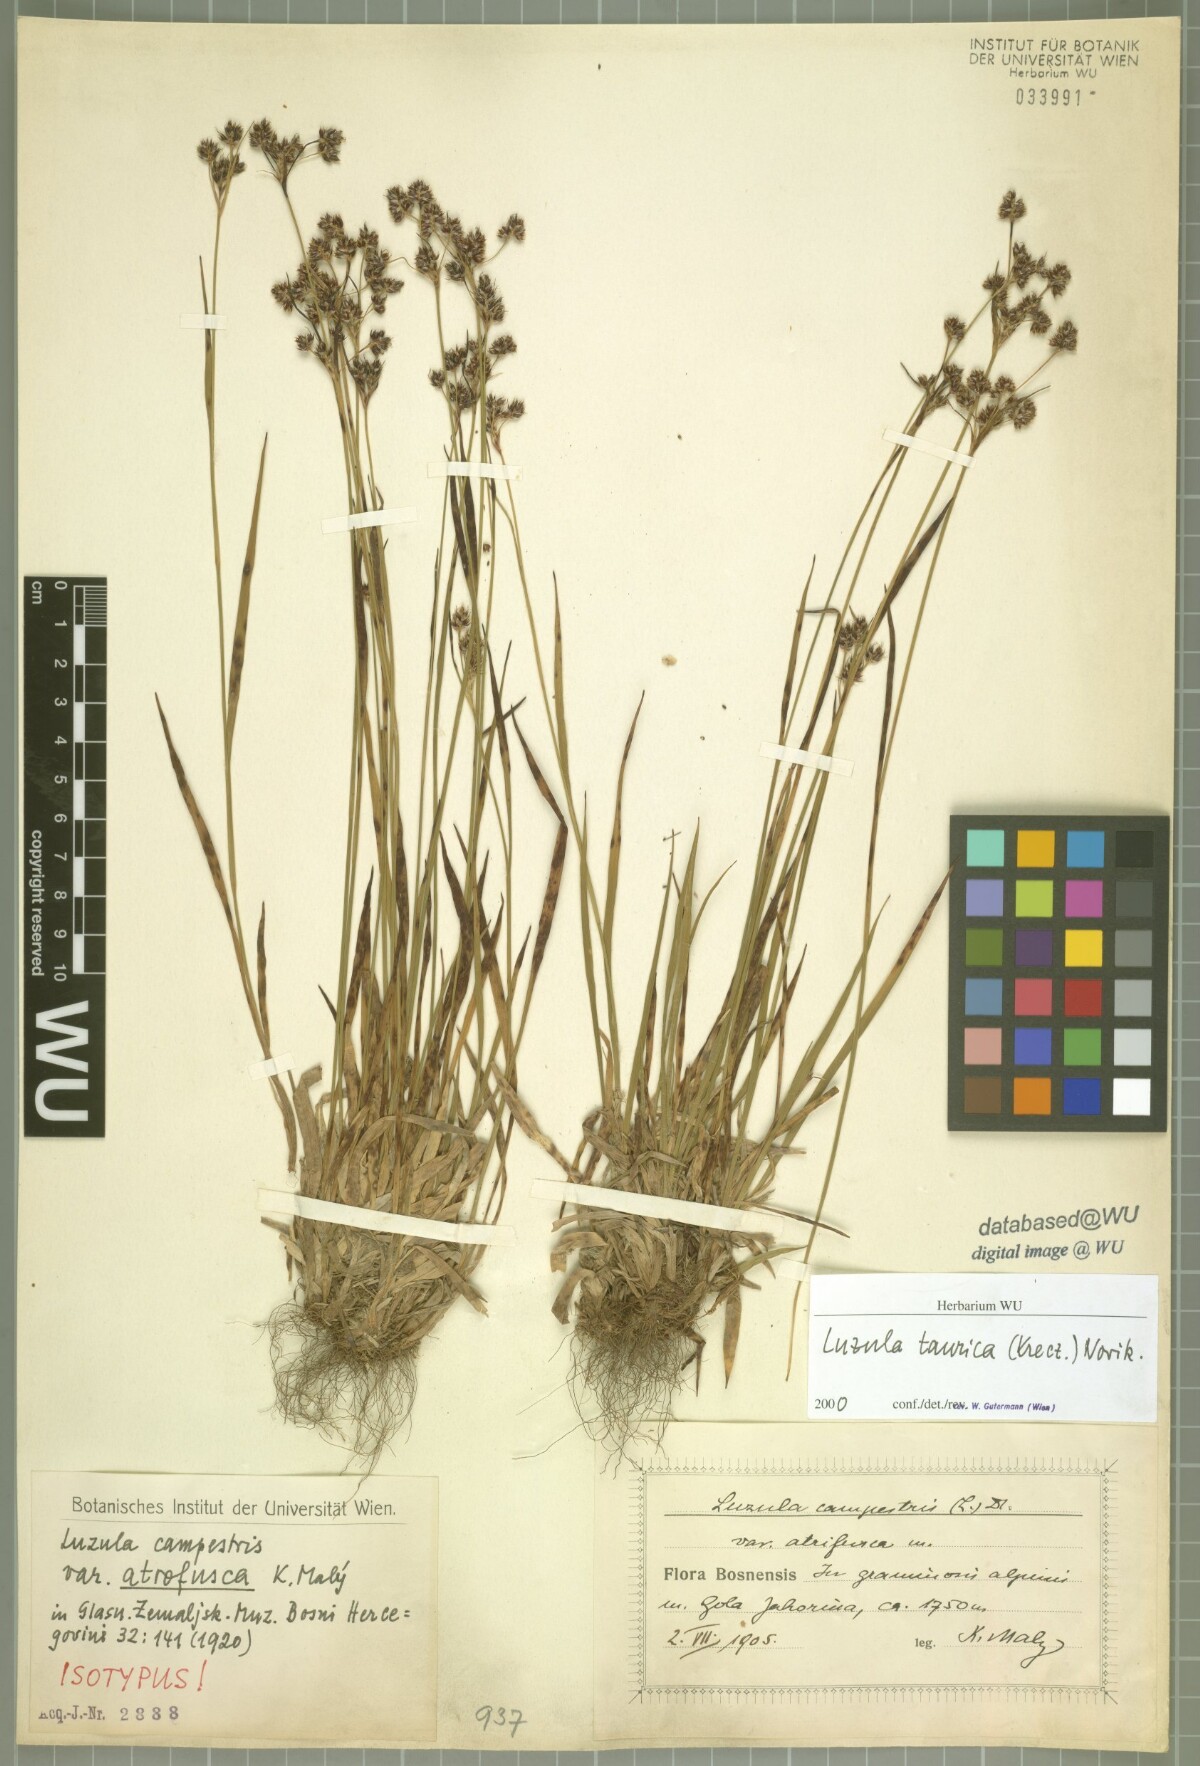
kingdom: Plantae
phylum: Tracheophyta
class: Liliopsida
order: Poales
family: Juncaceae
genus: Luzula
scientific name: Luzula taurica
